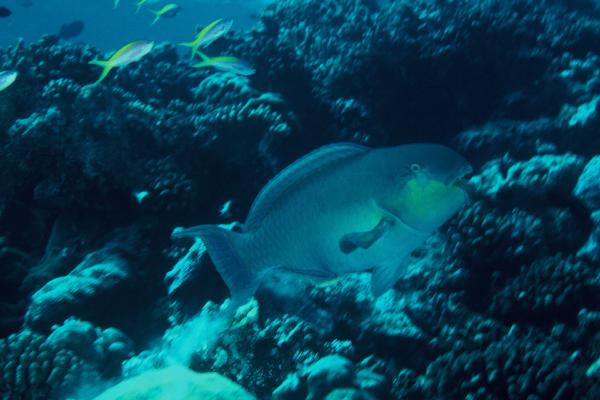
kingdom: Animalia
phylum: Chordata
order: Perciformes
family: Scaridae
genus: Chlorurus
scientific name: Chlorurus gibbus
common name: Heavybeak parrotfish
